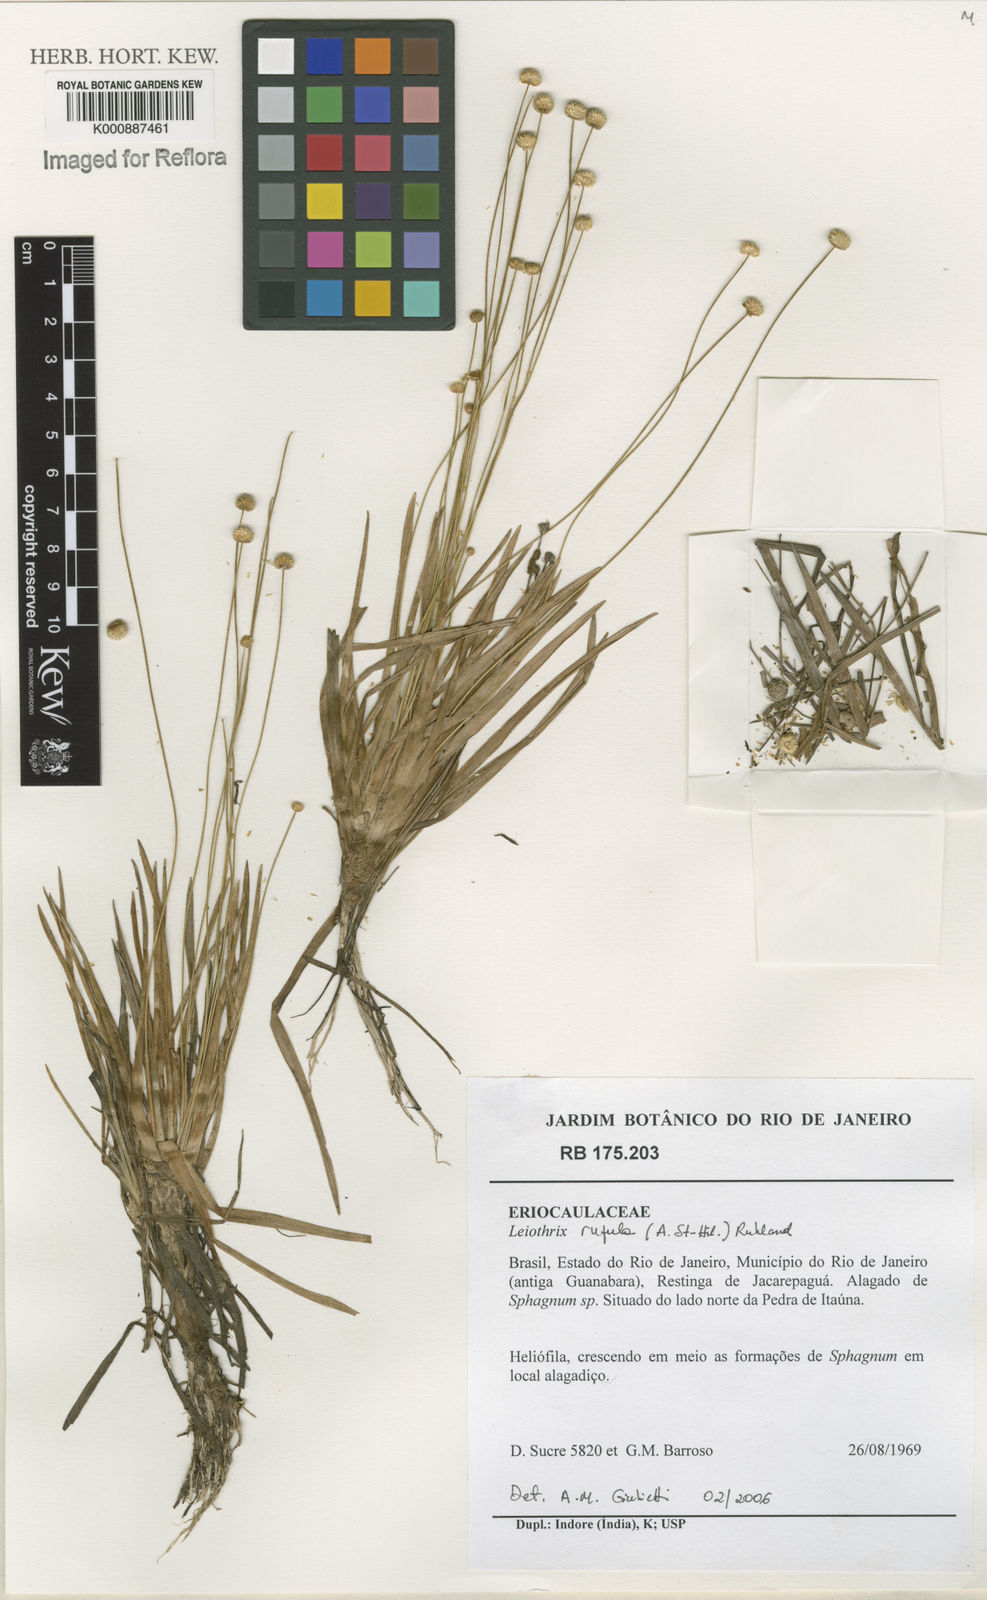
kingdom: Plantae
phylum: Tracheophyta
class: Liliopsida
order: Poales
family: Eriocaulaceae
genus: Leiothrix
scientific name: Leiothrix pilulifera
